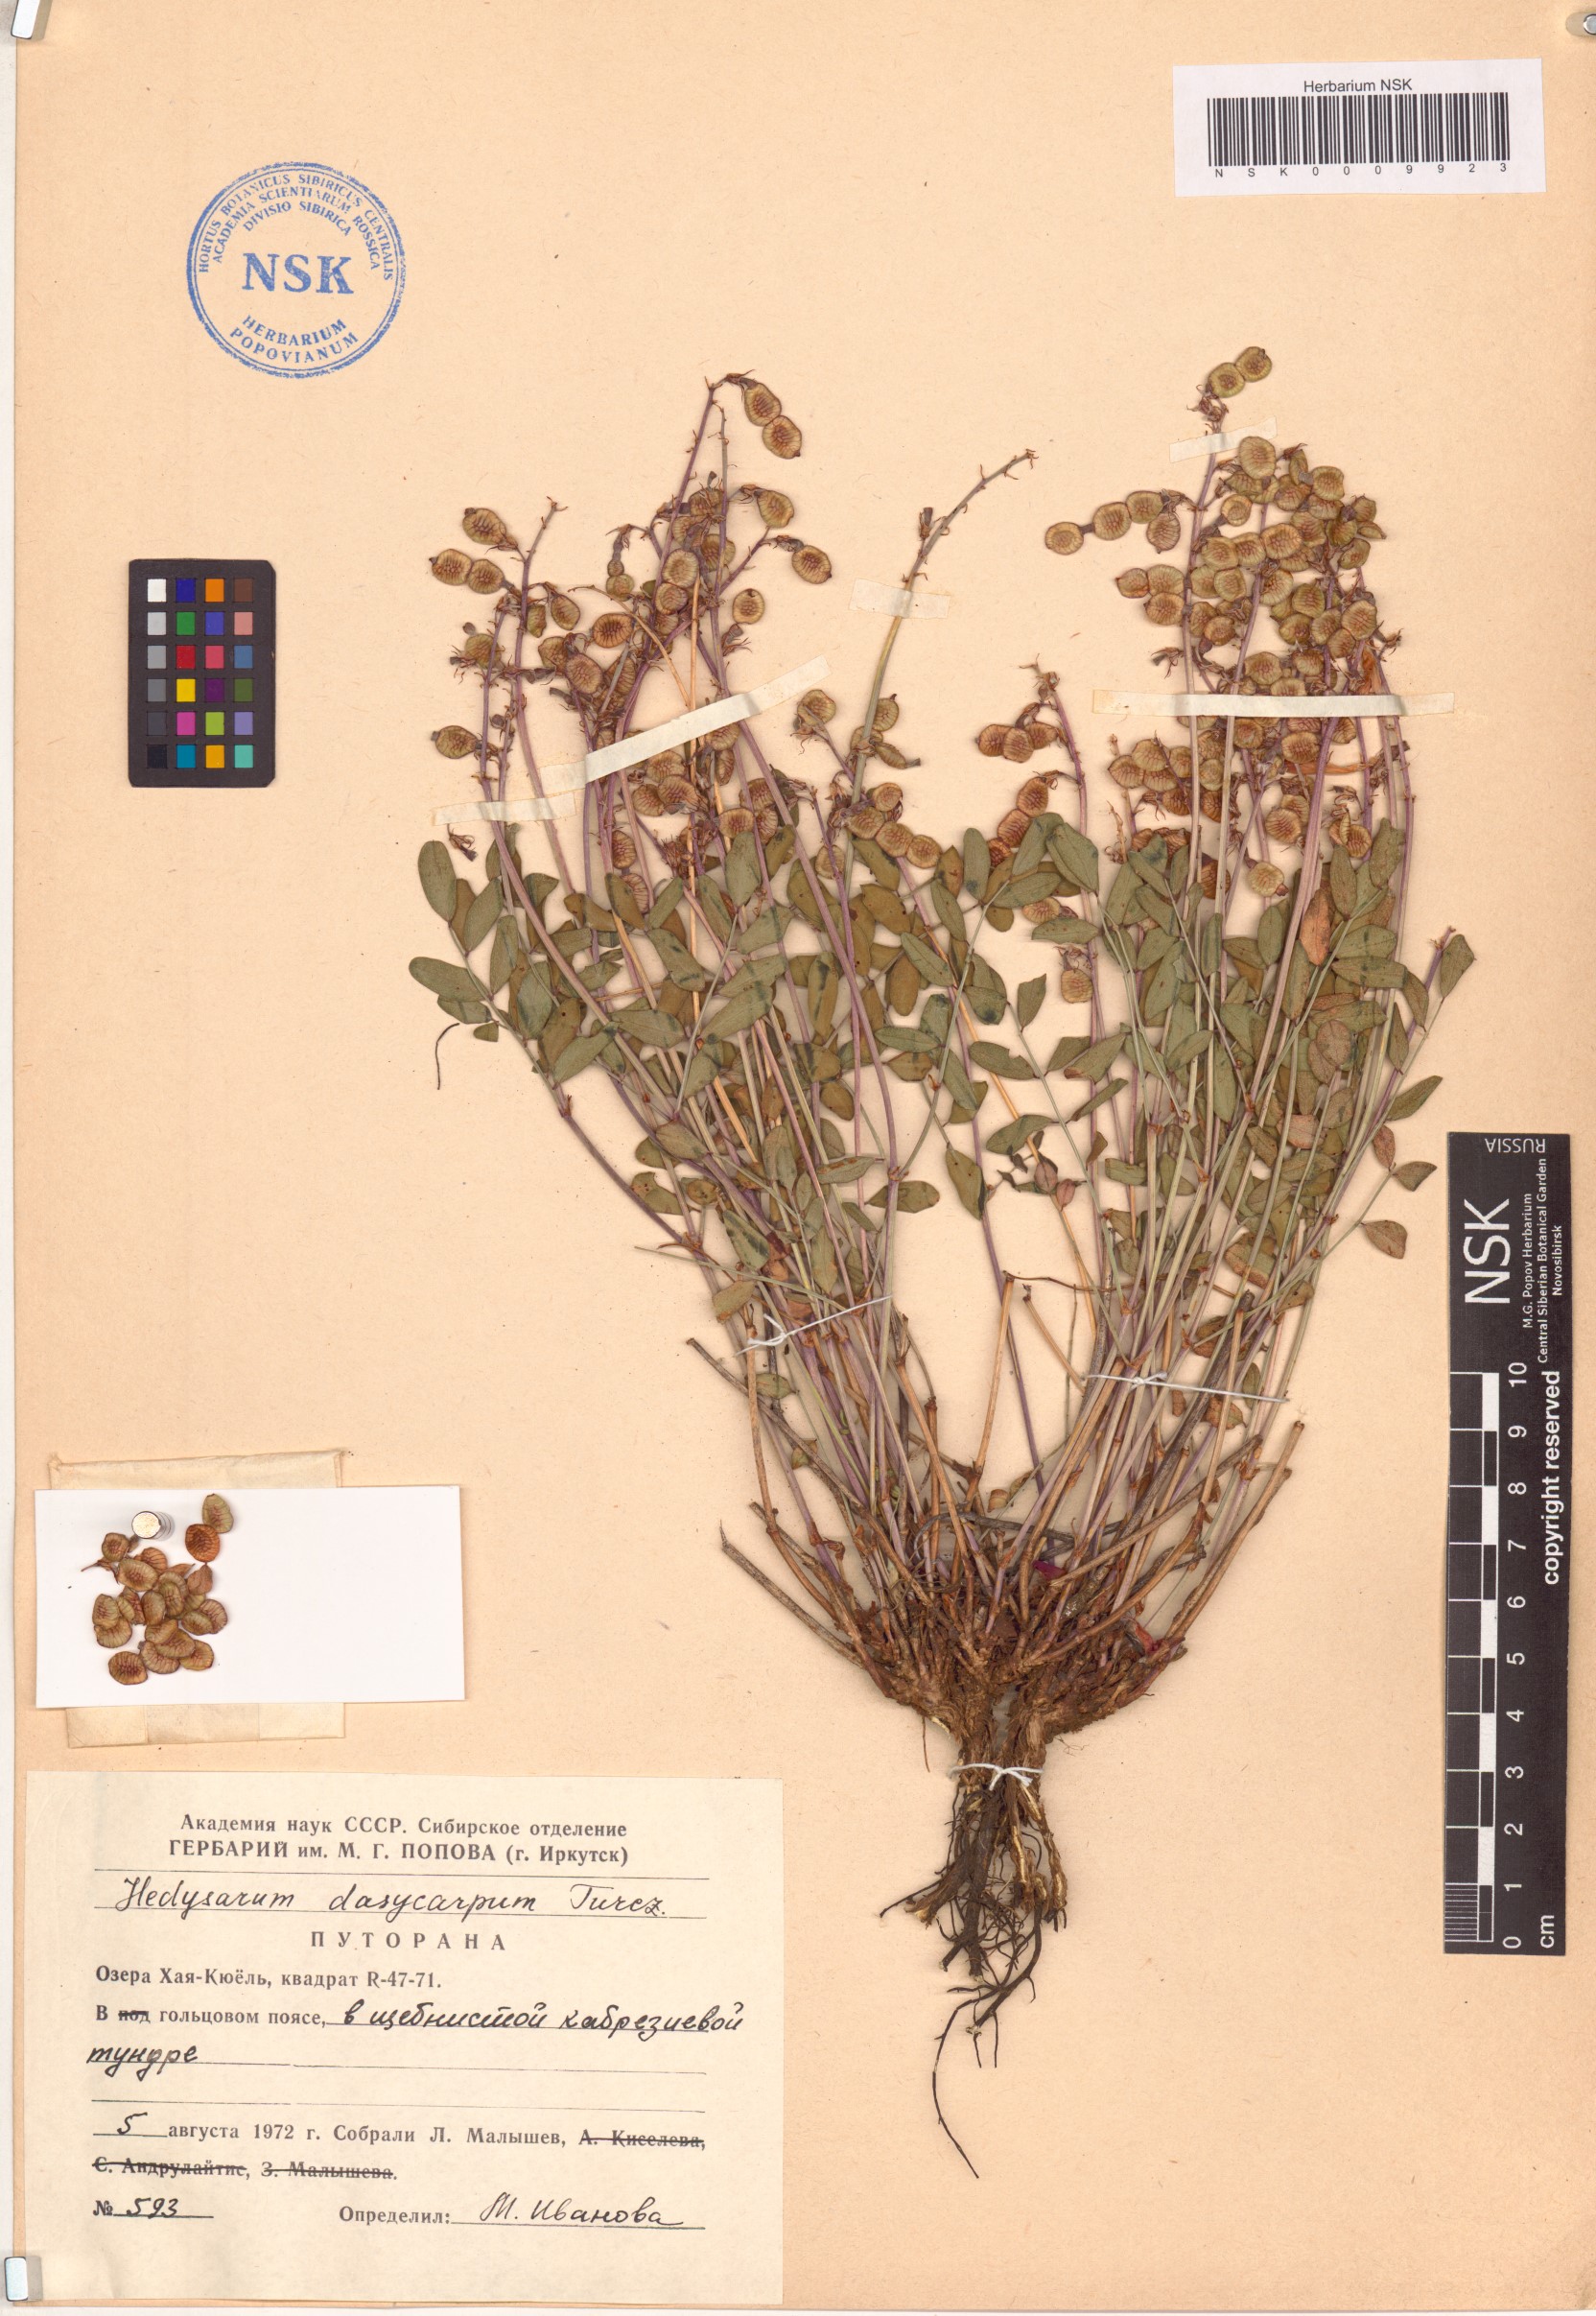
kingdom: Plantae
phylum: Tracheophyta
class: Magnoliopsida
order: Fabales
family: Fabaceae
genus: Hedysarum
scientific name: Hedysarum dasycarpum
